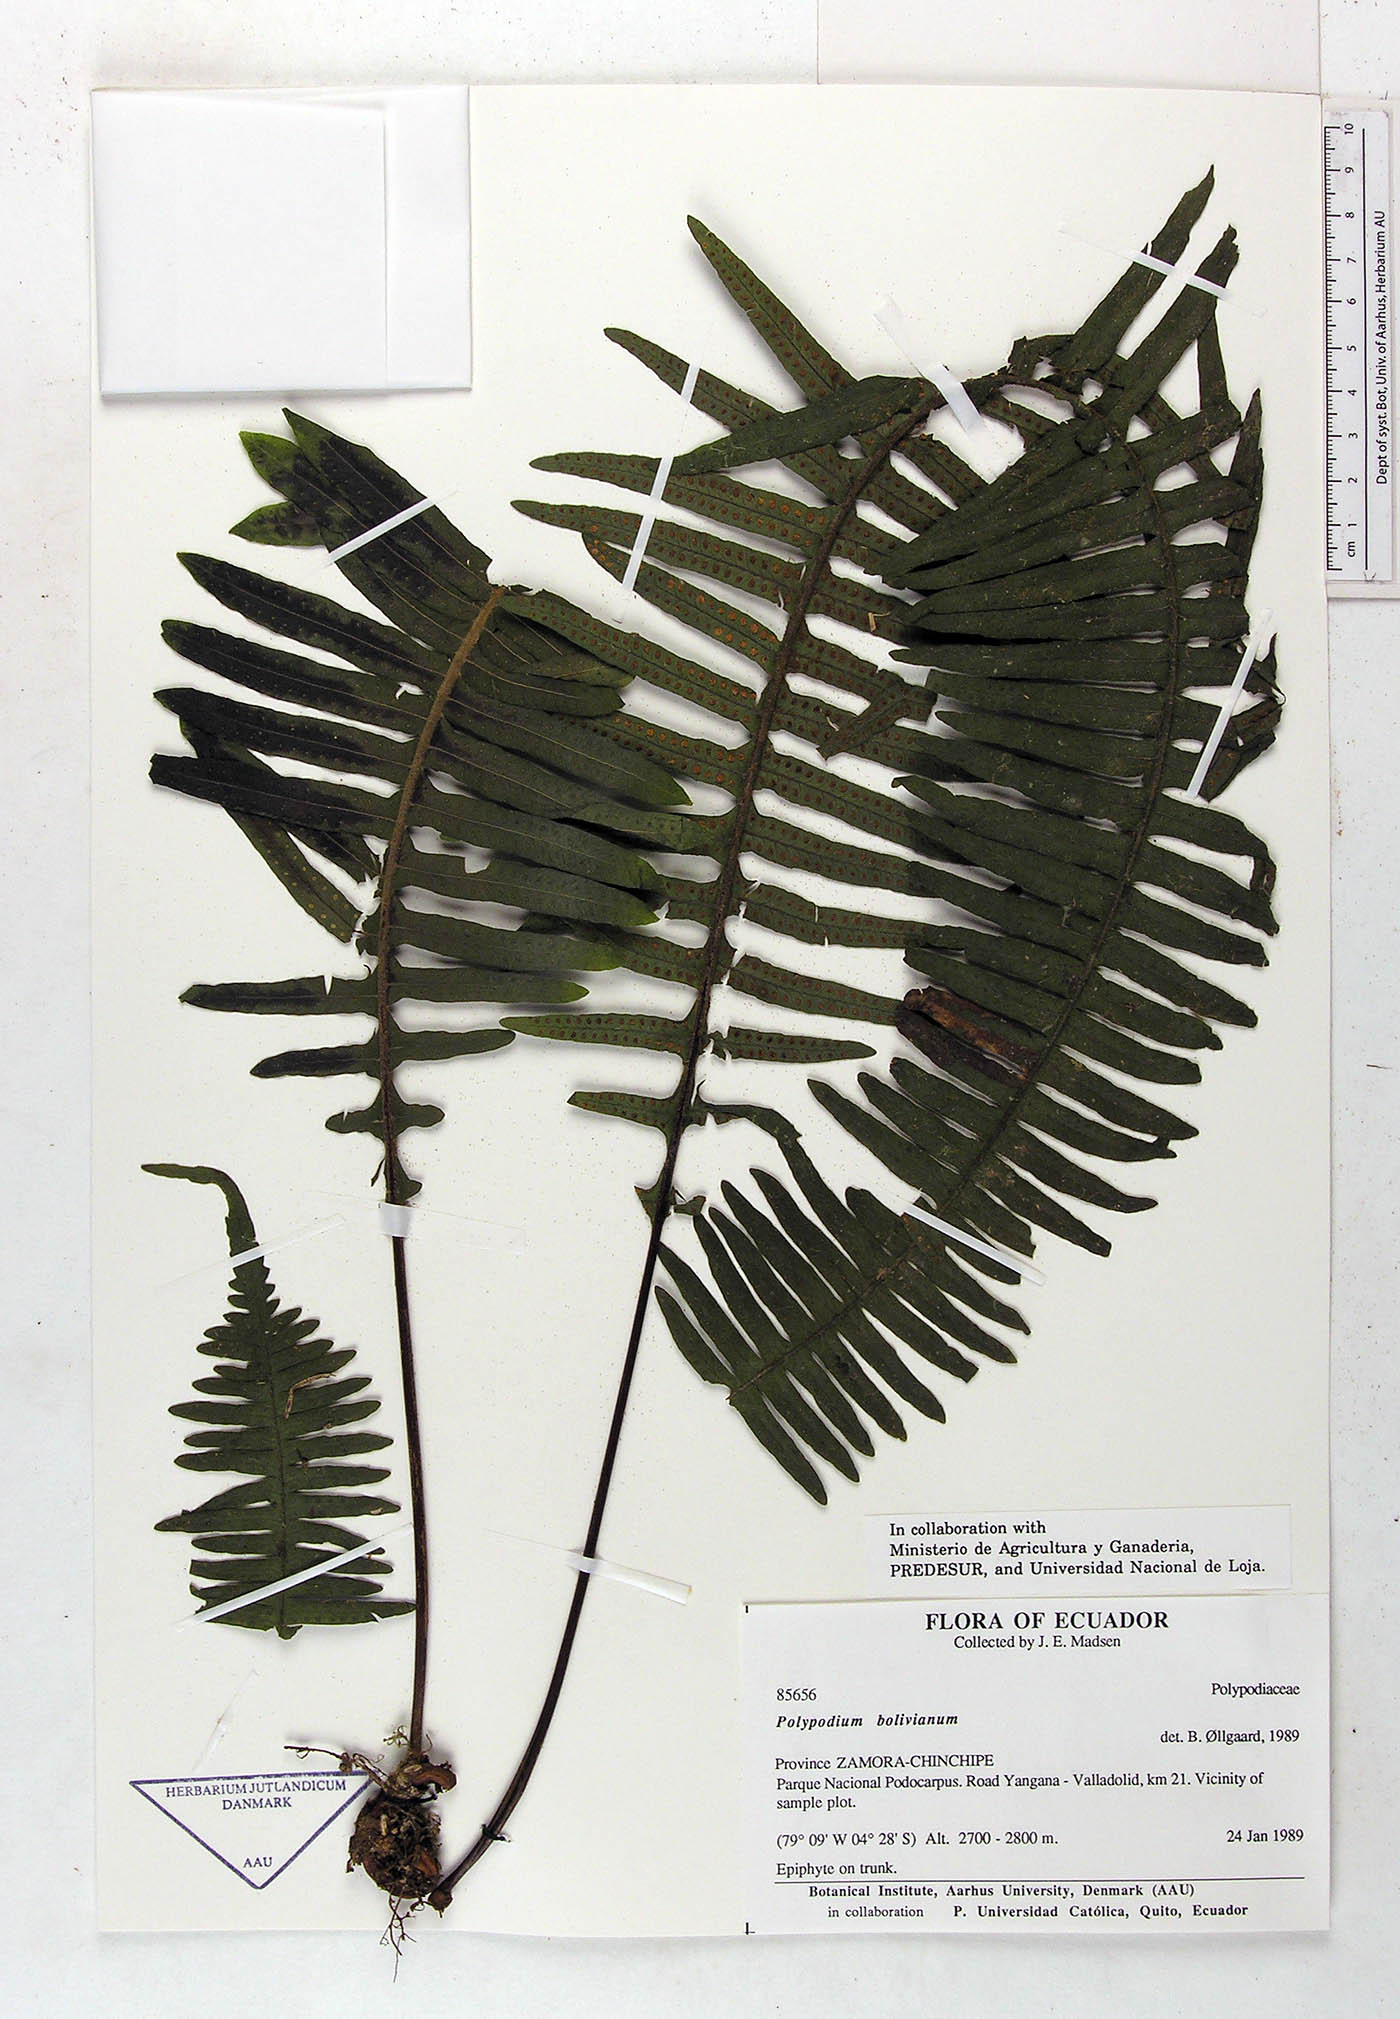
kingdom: Plantae
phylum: Tracheophyta
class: Polypodiopsida
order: Polypodiales
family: Polypodiaceae
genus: Pecluma
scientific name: Pecluma divaricata
